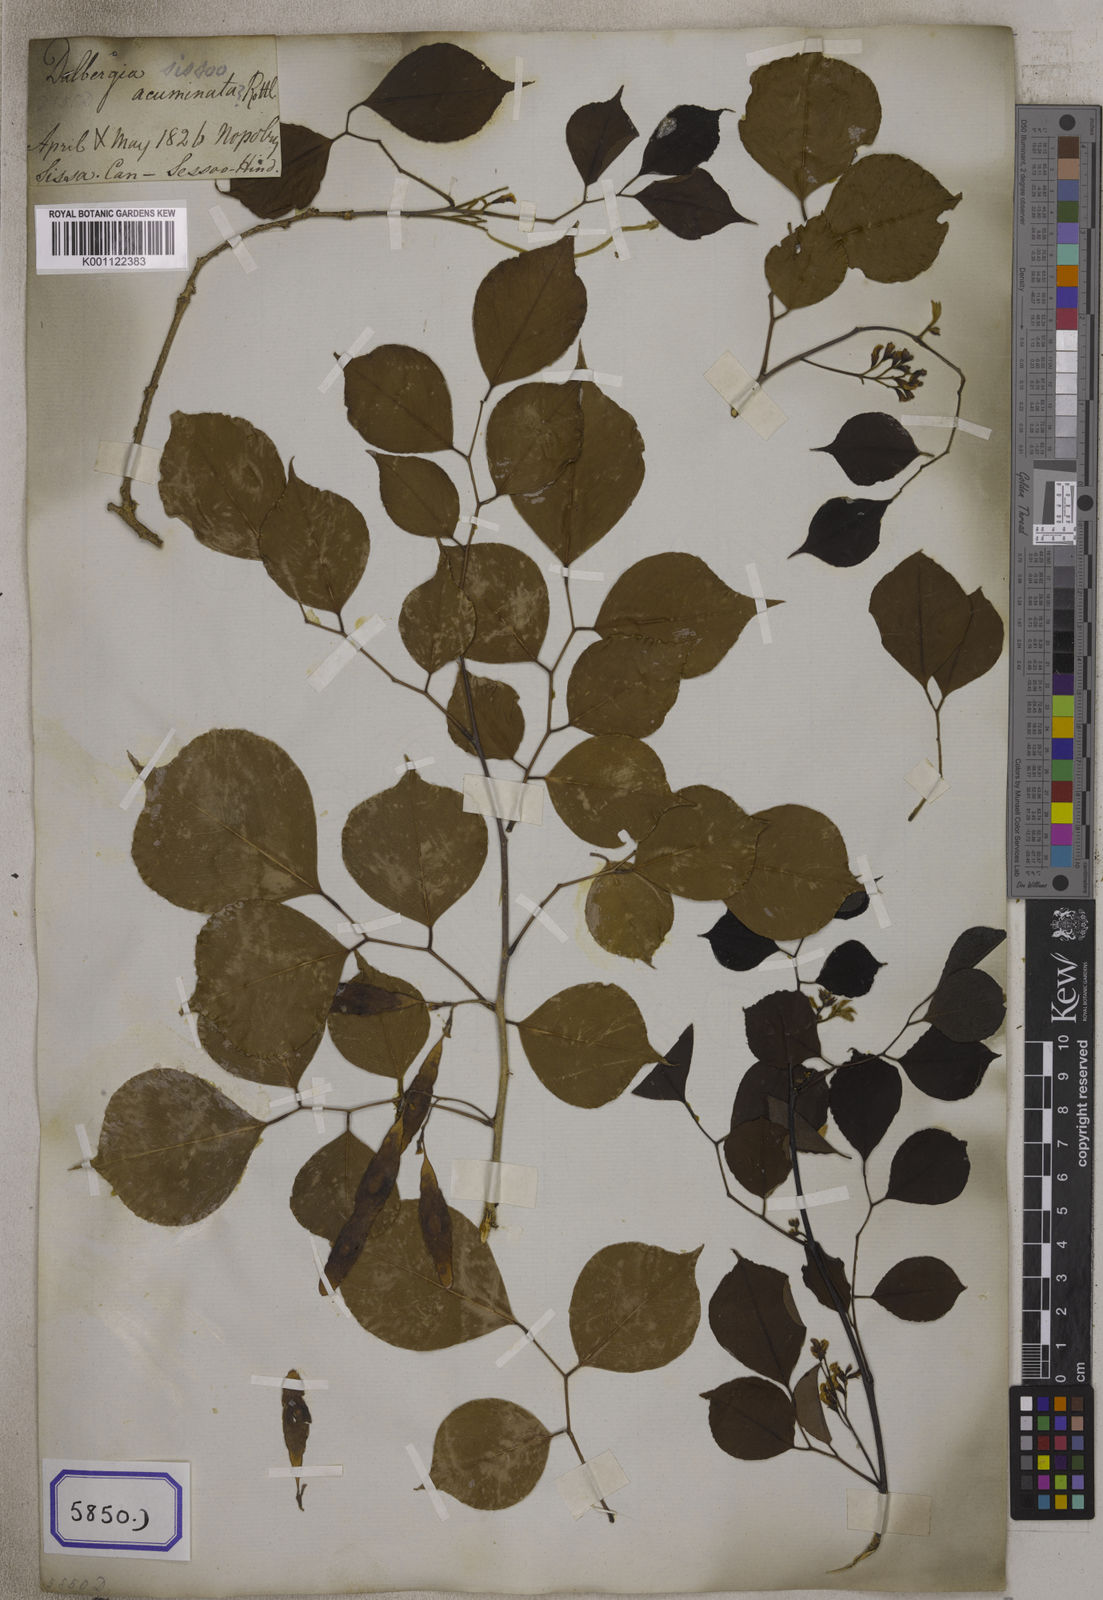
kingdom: Plantae
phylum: Tracheophyta
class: Magnoliopsida
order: Fabales
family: Fabaceae
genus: Dalbergia
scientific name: Dalbergia
